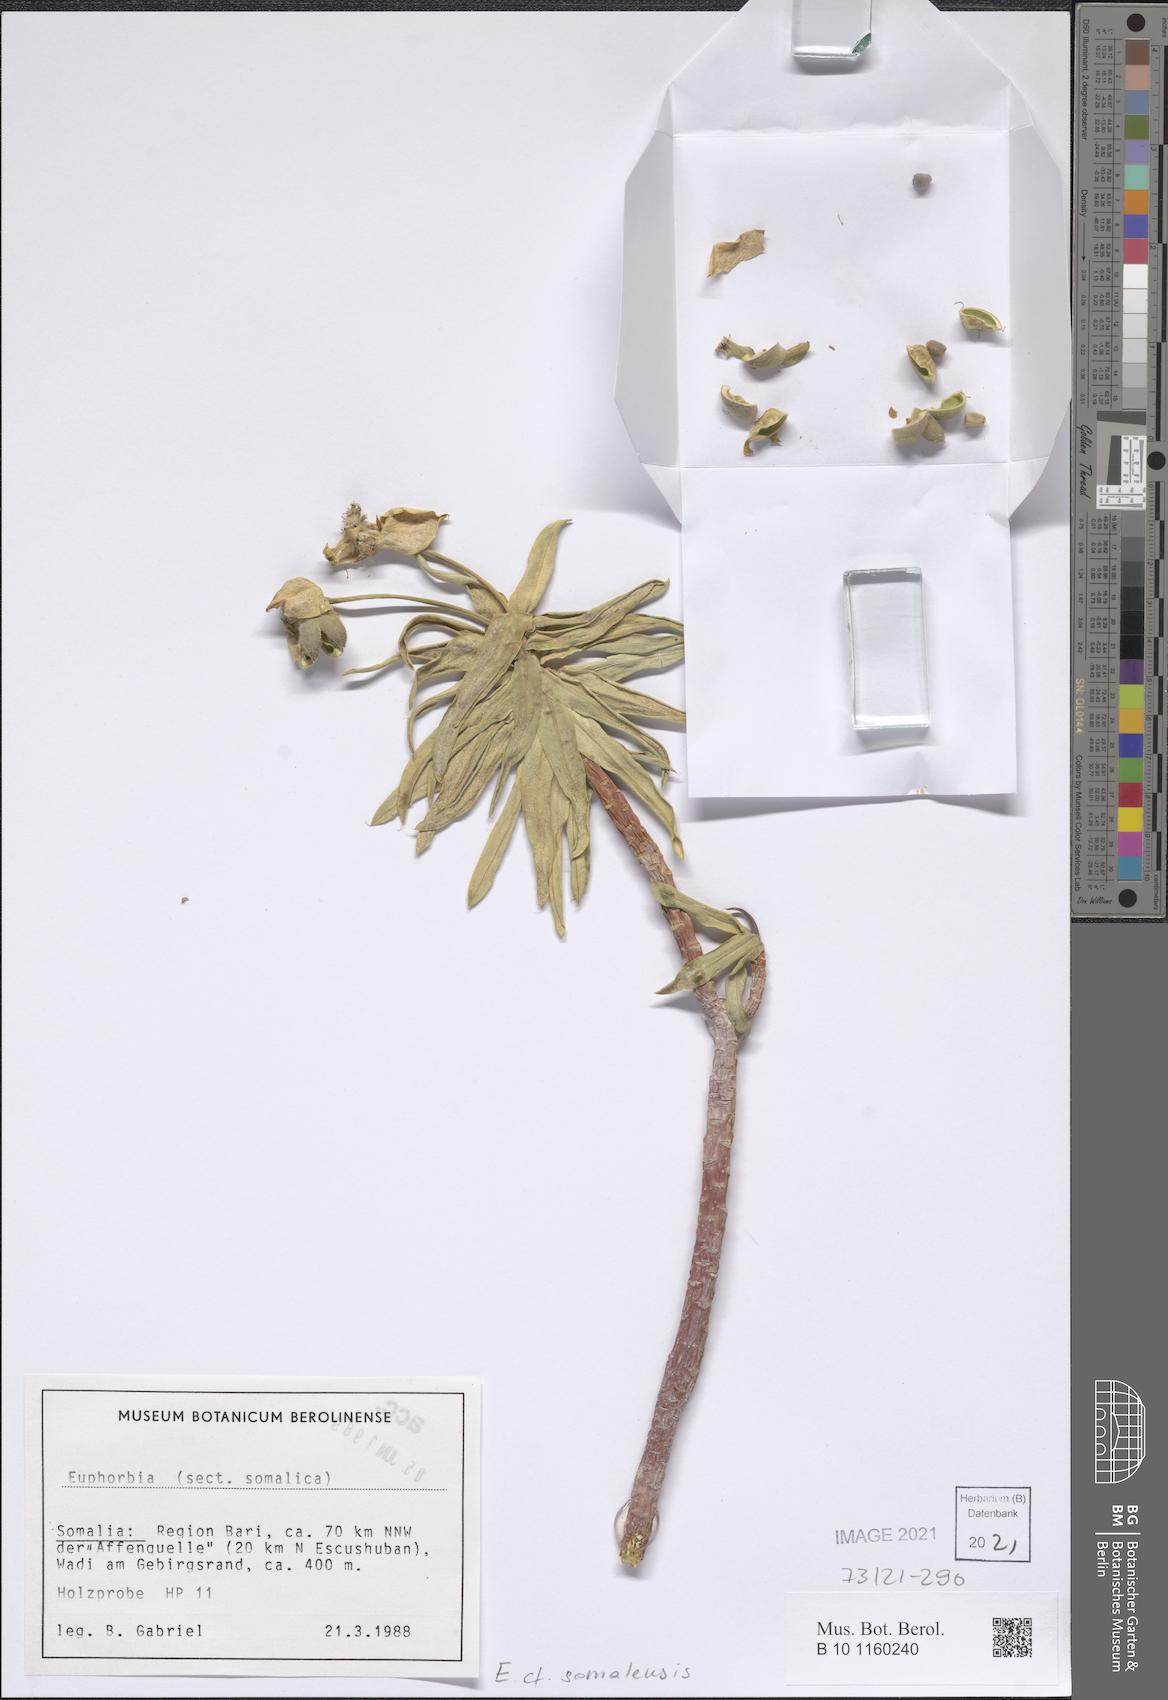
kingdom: Plantae
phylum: Tracheophyta
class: Magnoliopsida
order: Malpighiales
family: Euphorbiaceae
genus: Euphorbia
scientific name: Euphorbia somalensis
